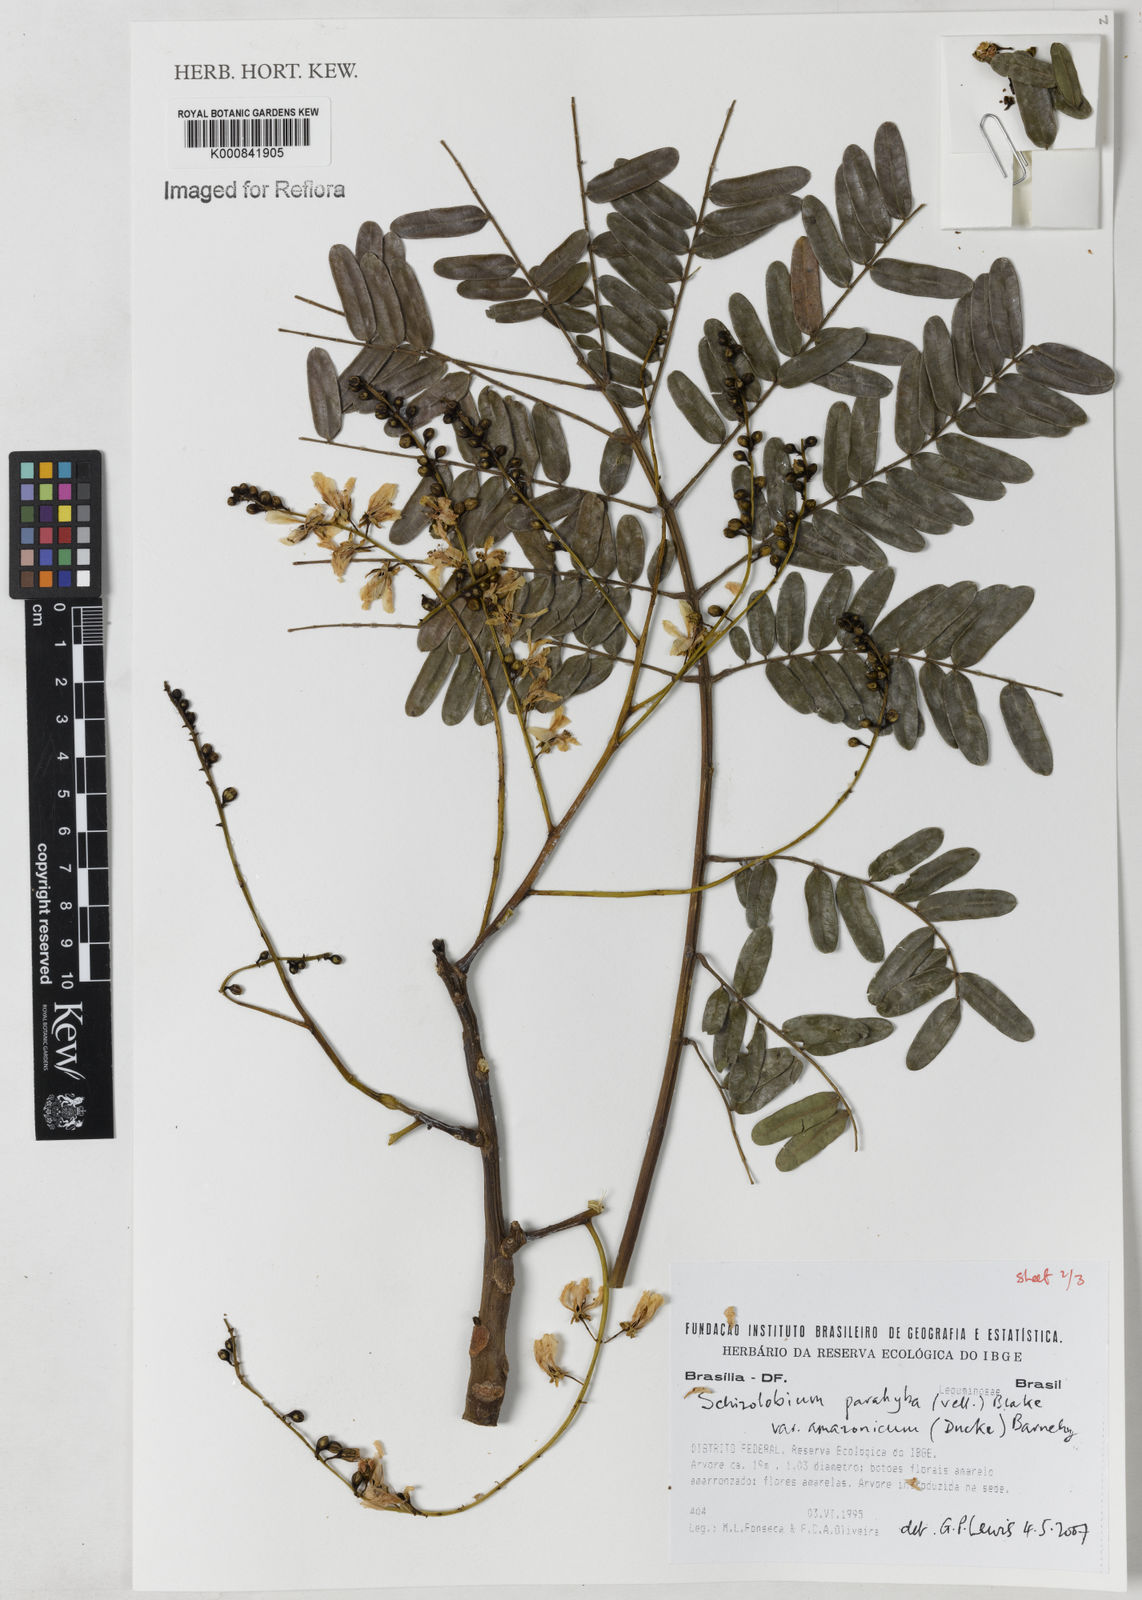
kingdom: Plantae
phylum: Tracheophyta
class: Magnoliopsida
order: Fabales
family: Fabaceae
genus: Schizolobium
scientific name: Schizolobium parahyba
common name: Brazilian firetree
